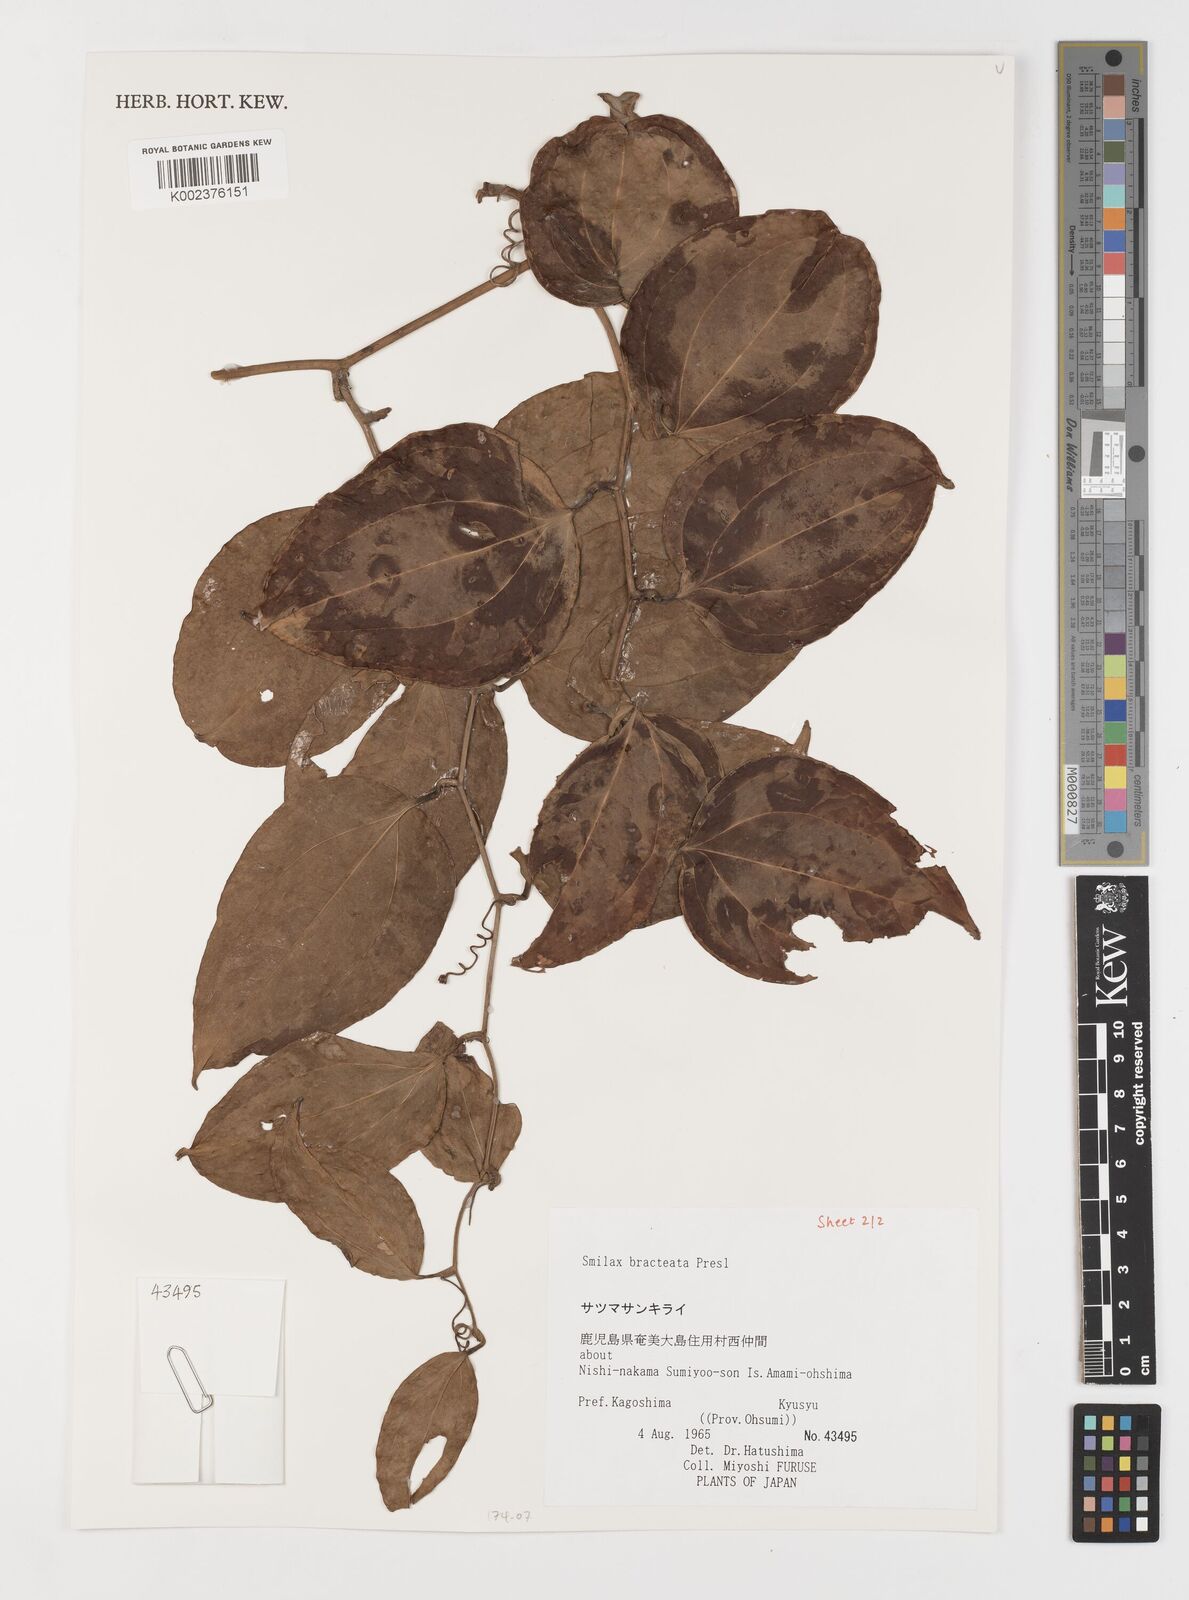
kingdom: Plantae
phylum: Tracheophyta
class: Liliopsida
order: Liliales
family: Smilacaceae
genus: Smilax
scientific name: Smilax bracteata
